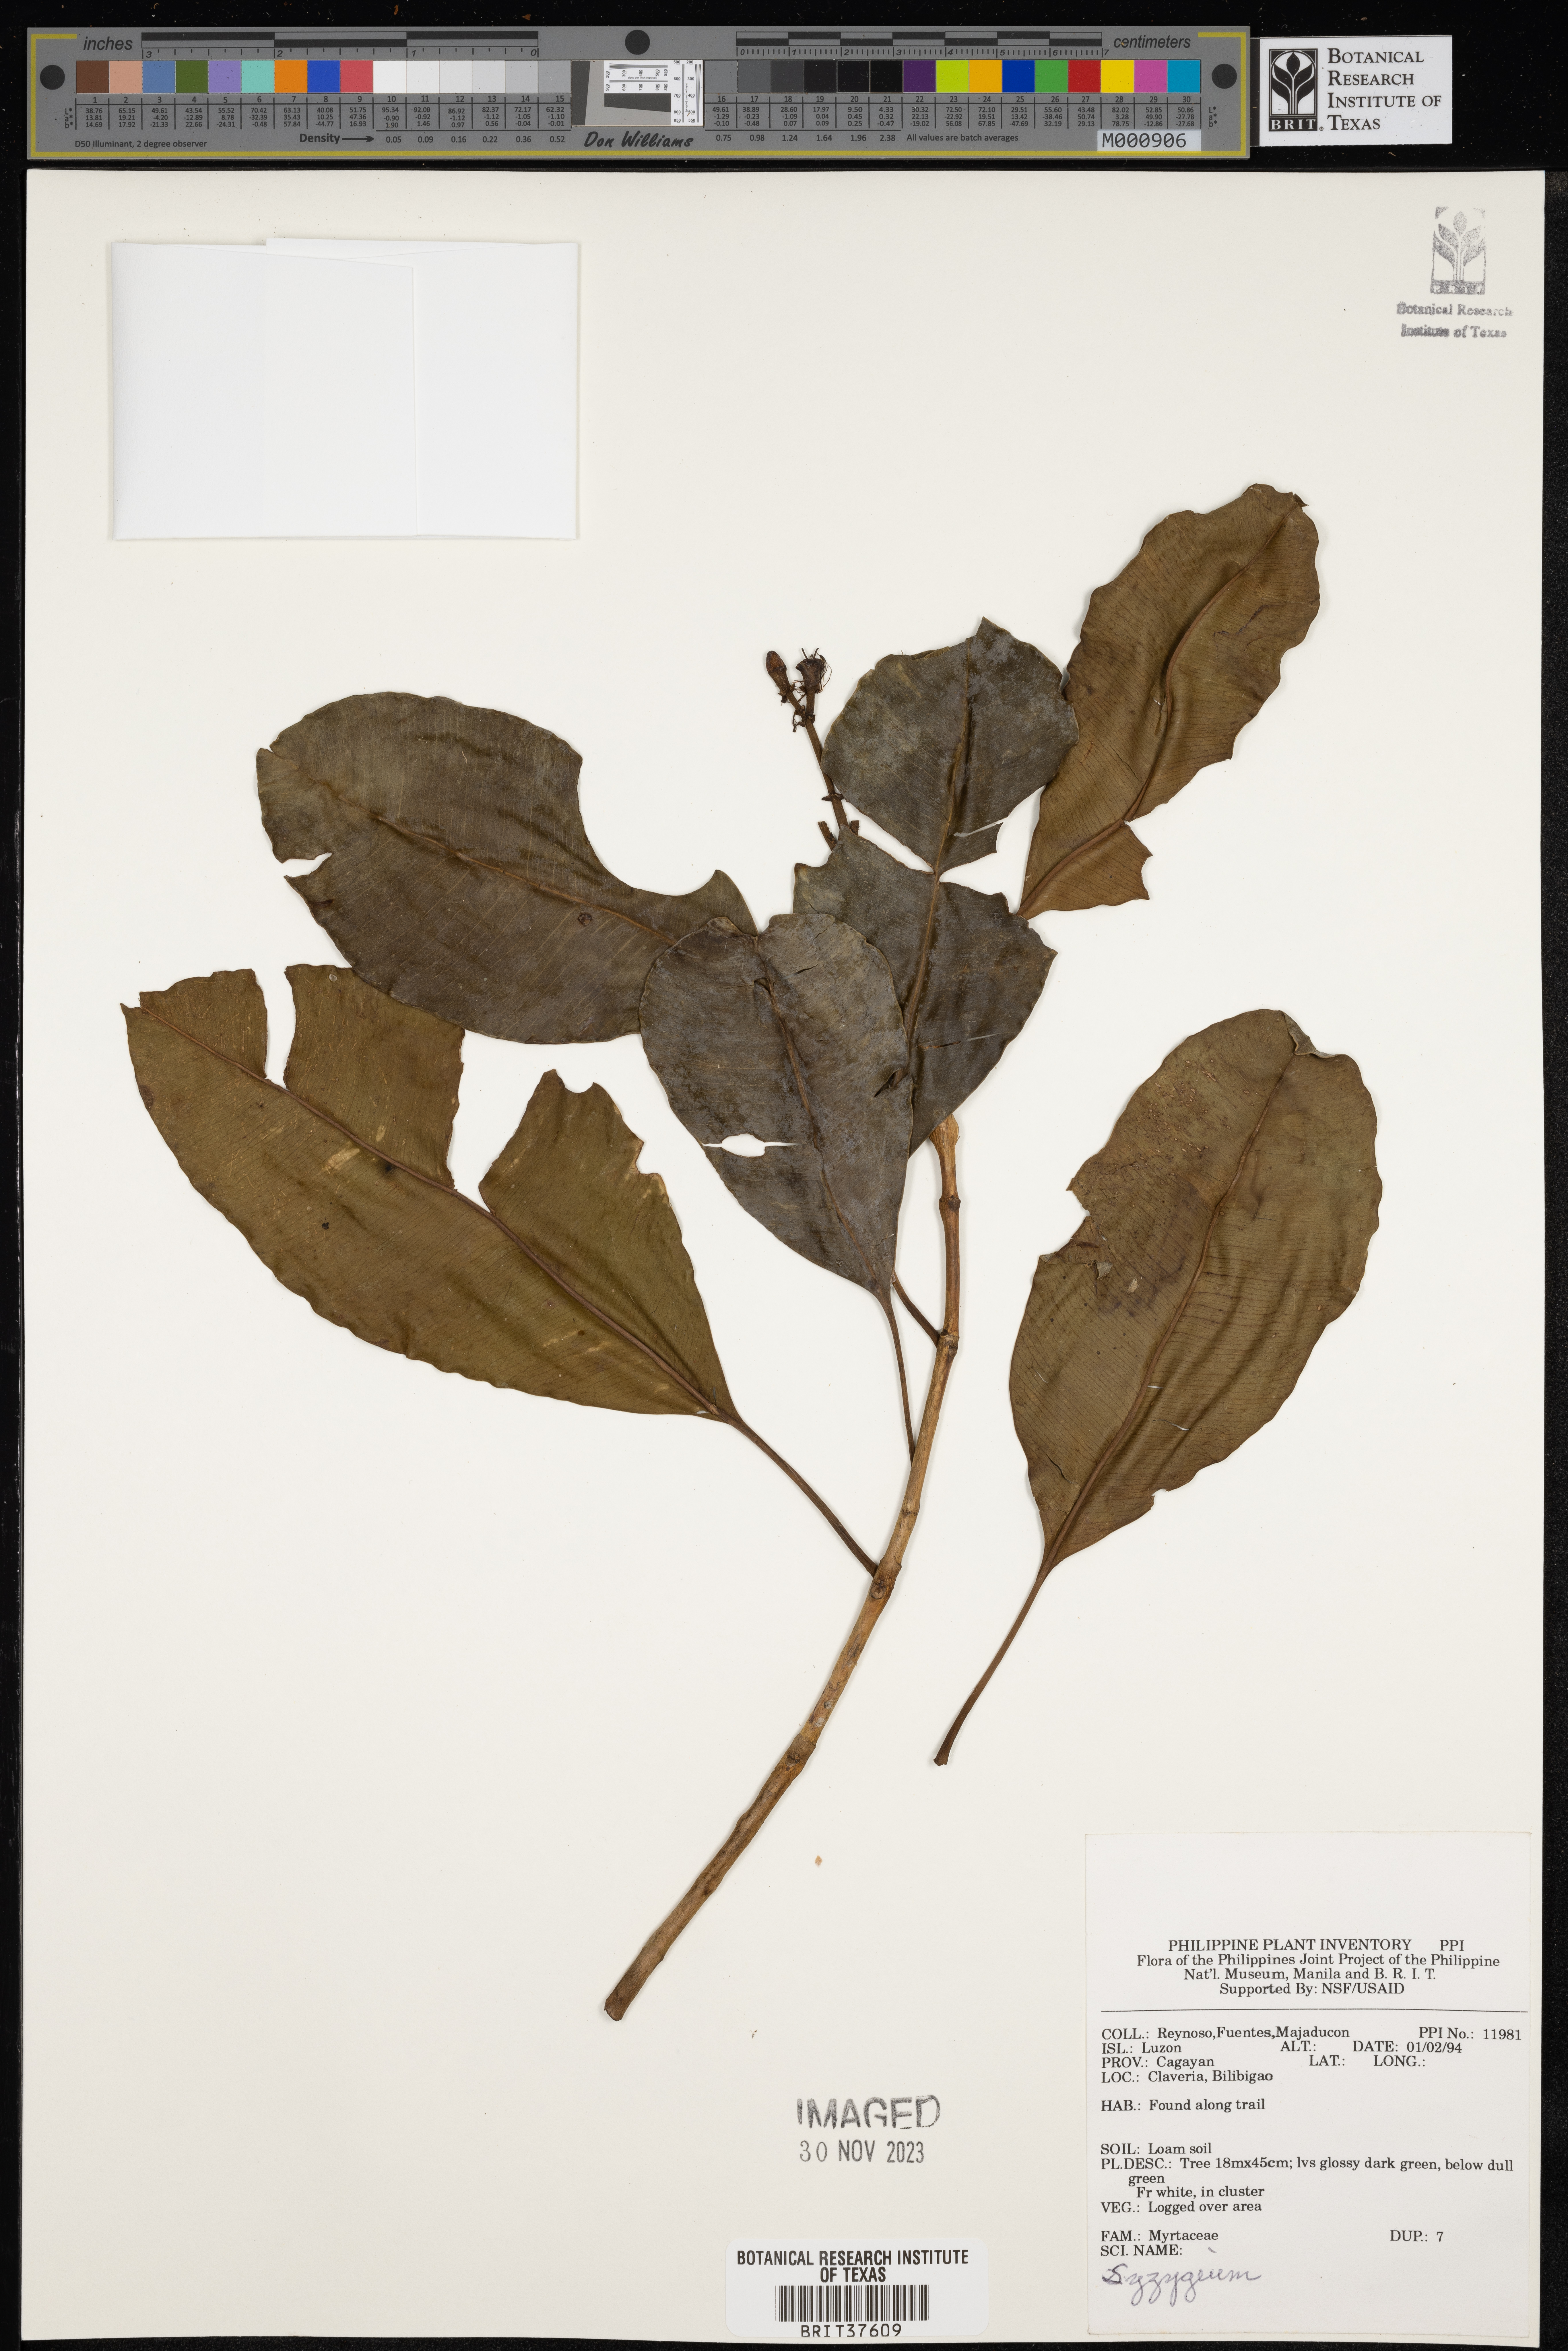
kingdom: Plantae
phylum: Tracheophyta
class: Magnoliopsida
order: Myrtales
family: Myrtaceae
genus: Syzygium
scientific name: Syzygium
